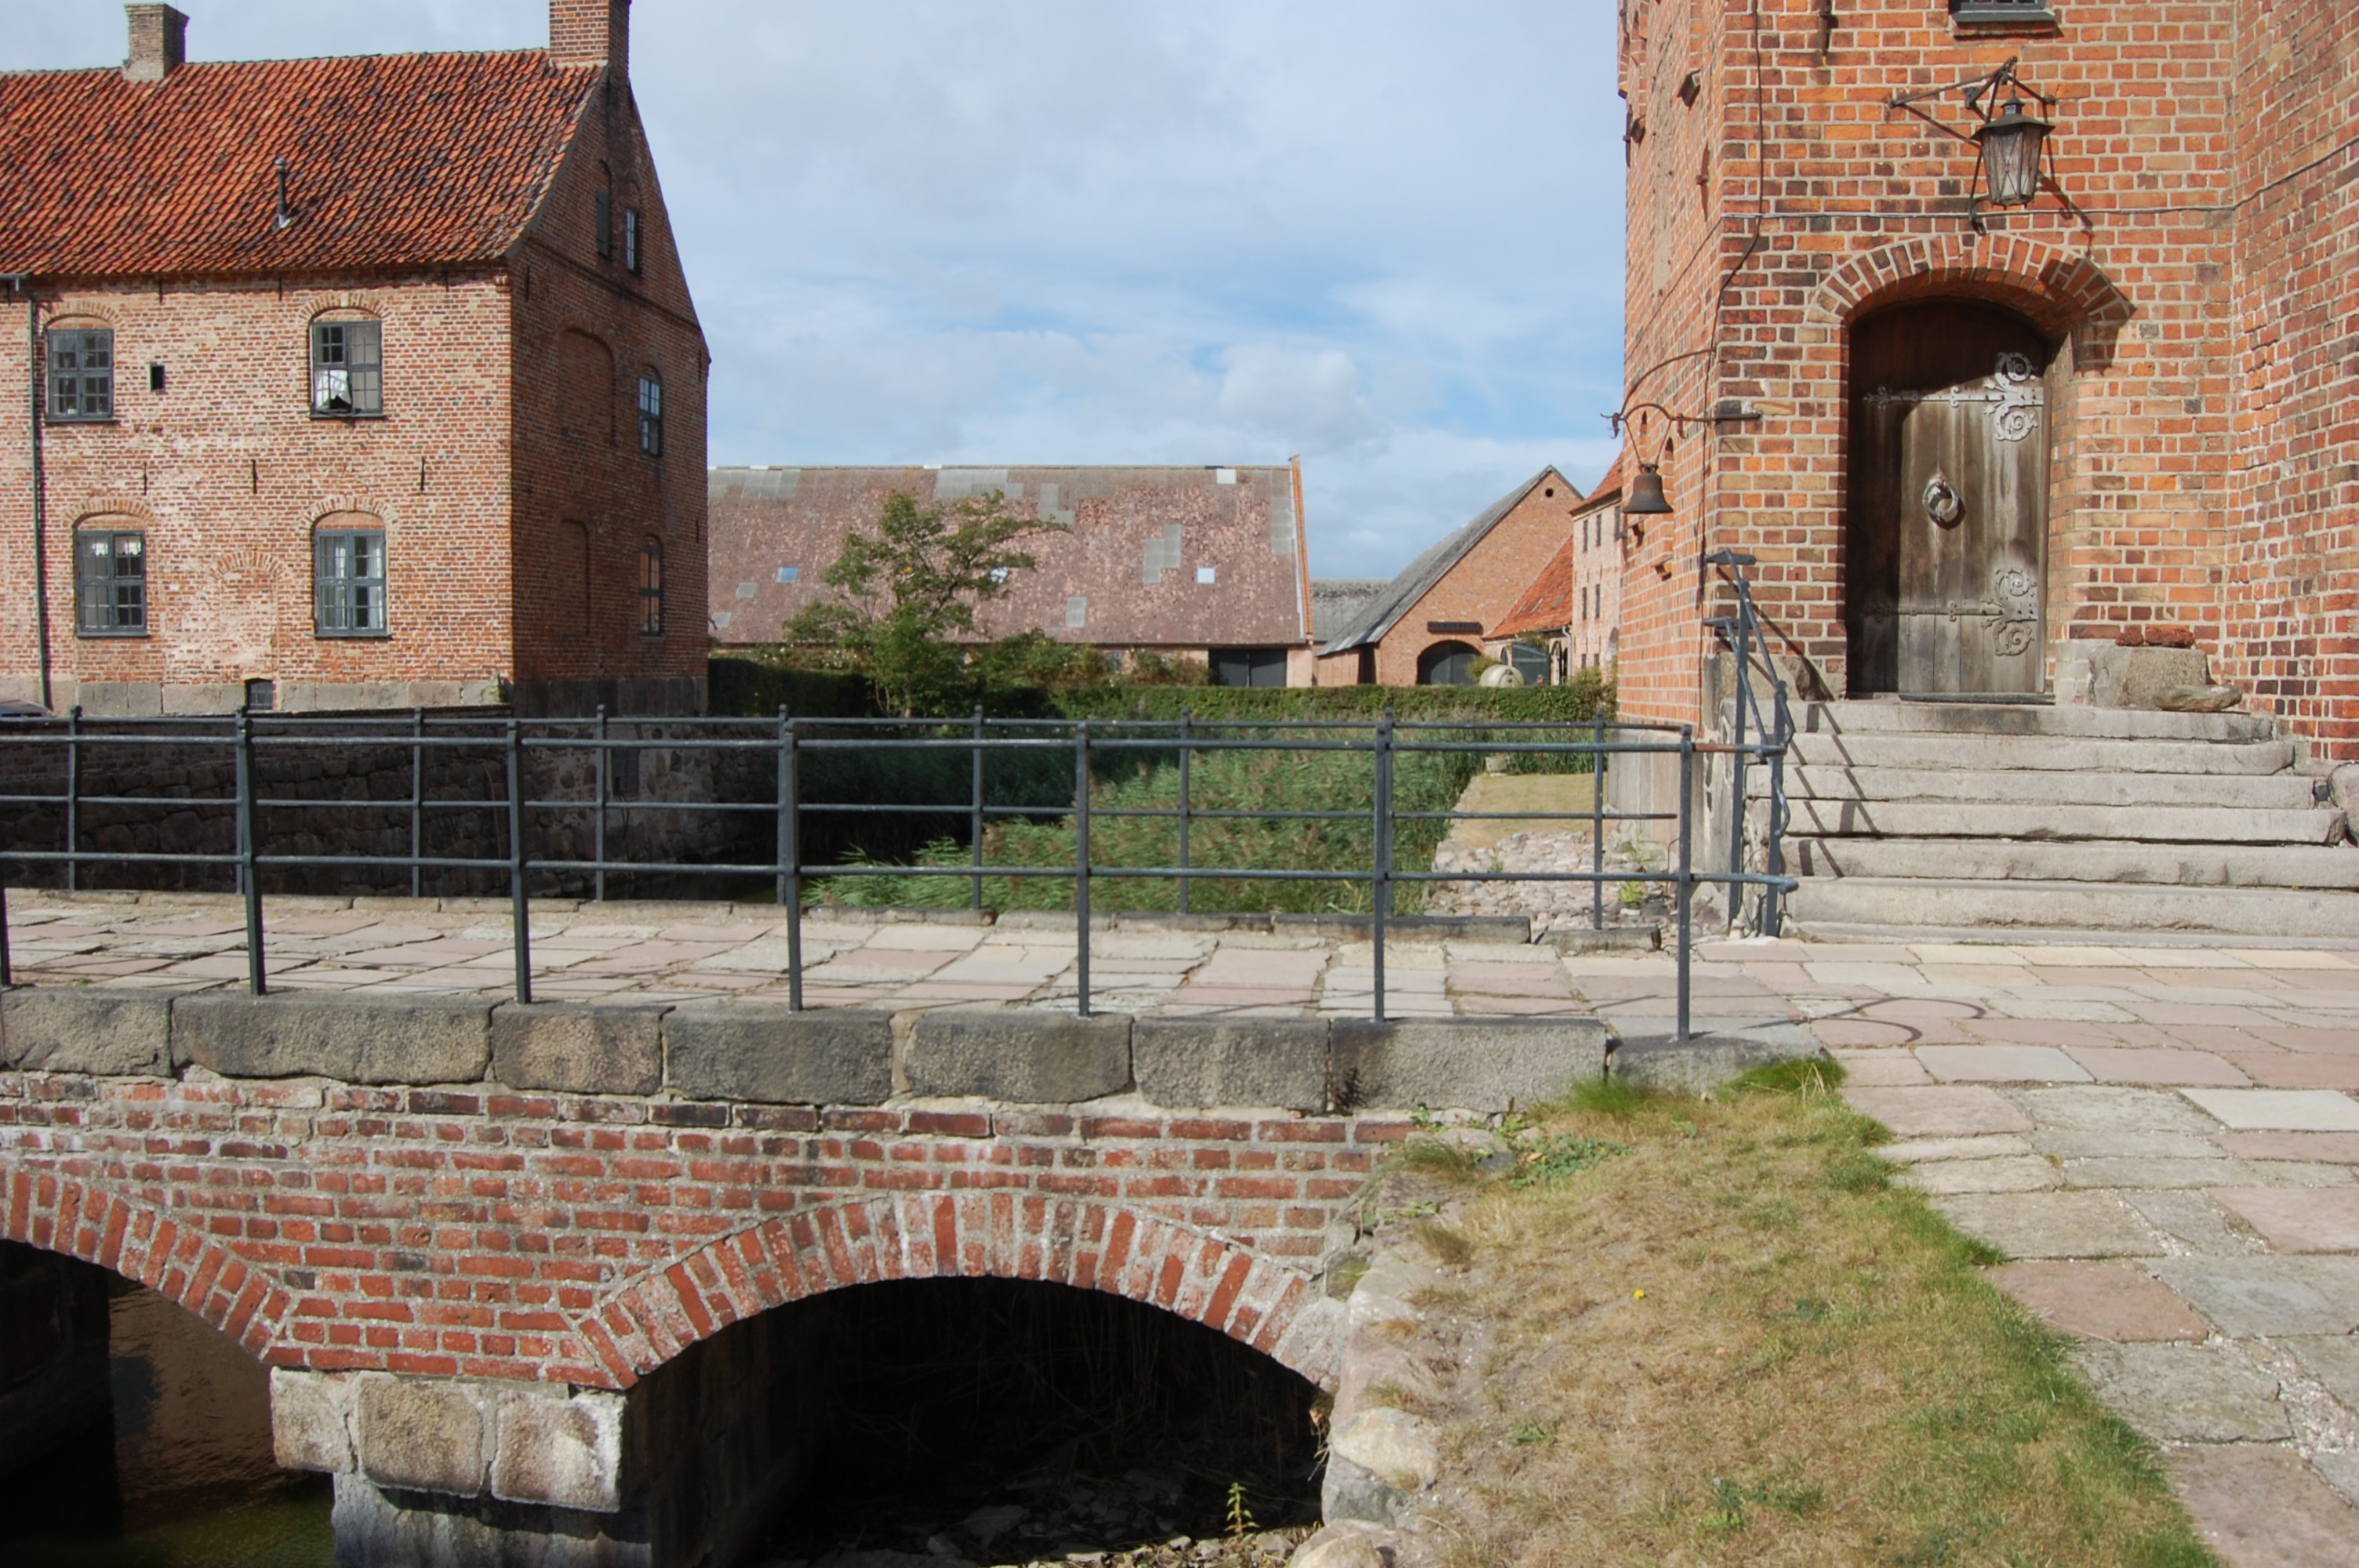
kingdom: Plantae
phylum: Tracheophyta
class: Magnoliopsida
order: Apiales
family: Apiaceae
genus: Aegopodium
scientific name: Aegopodium podagraria
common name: Ground-elder
